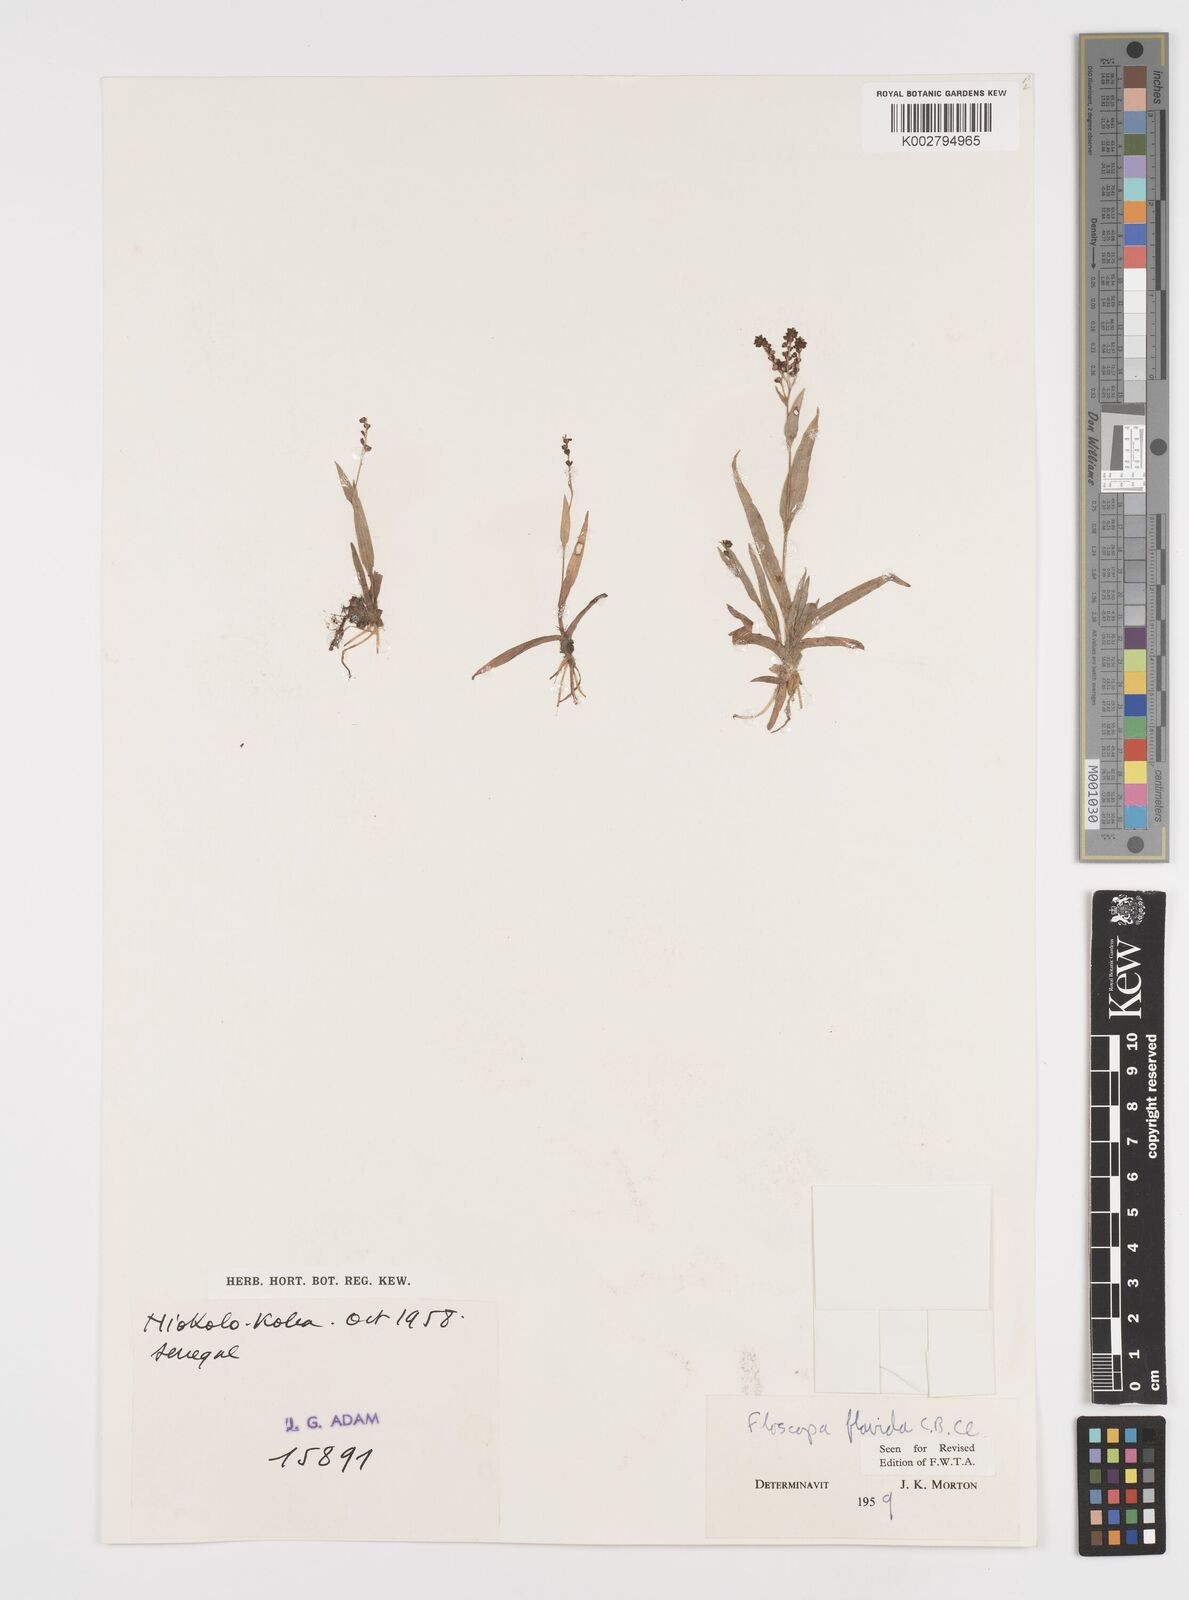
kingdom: Plantae
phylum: Tracheophyta
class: Liliopsida
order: Commelinales
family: Commelinaceae
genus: Floscopa
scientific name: Floscopa flavida
